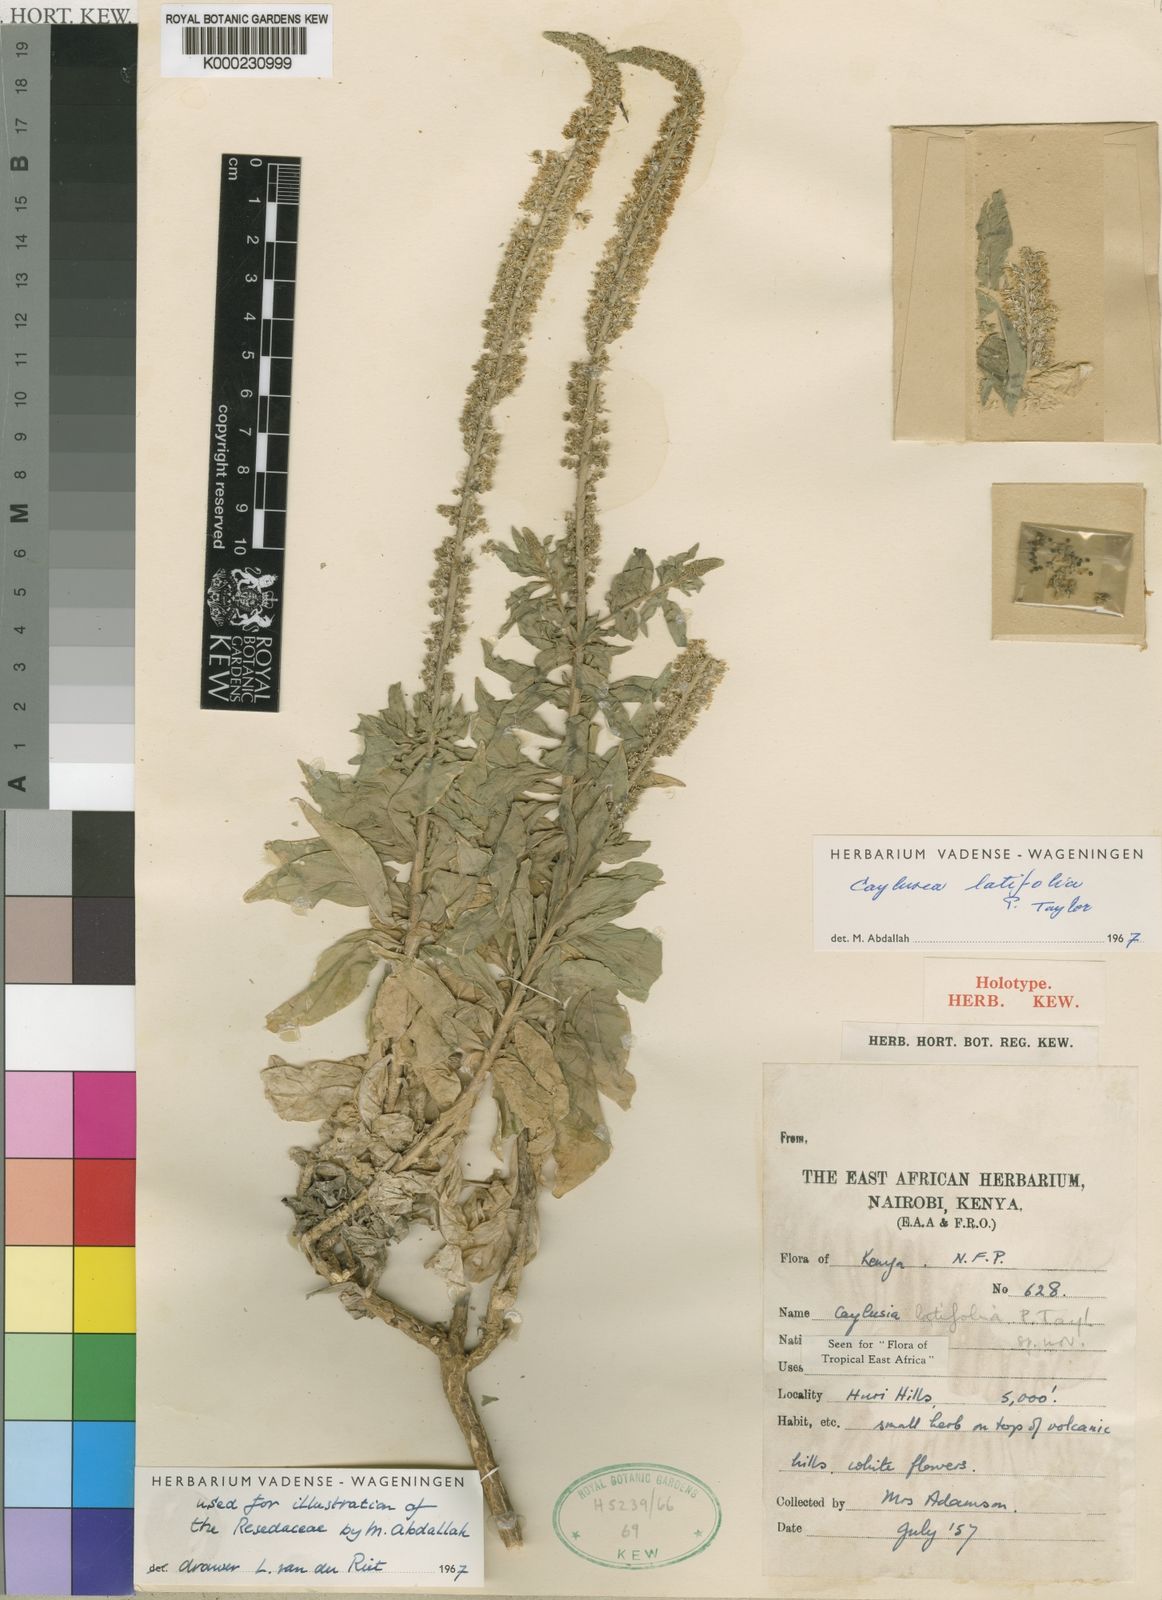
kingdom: Plantae
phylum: Tracheophyta
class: Magnoliopsida
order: Brassicales
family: Resedaceae
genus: Caylusea
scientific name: Caylusea latifolia
